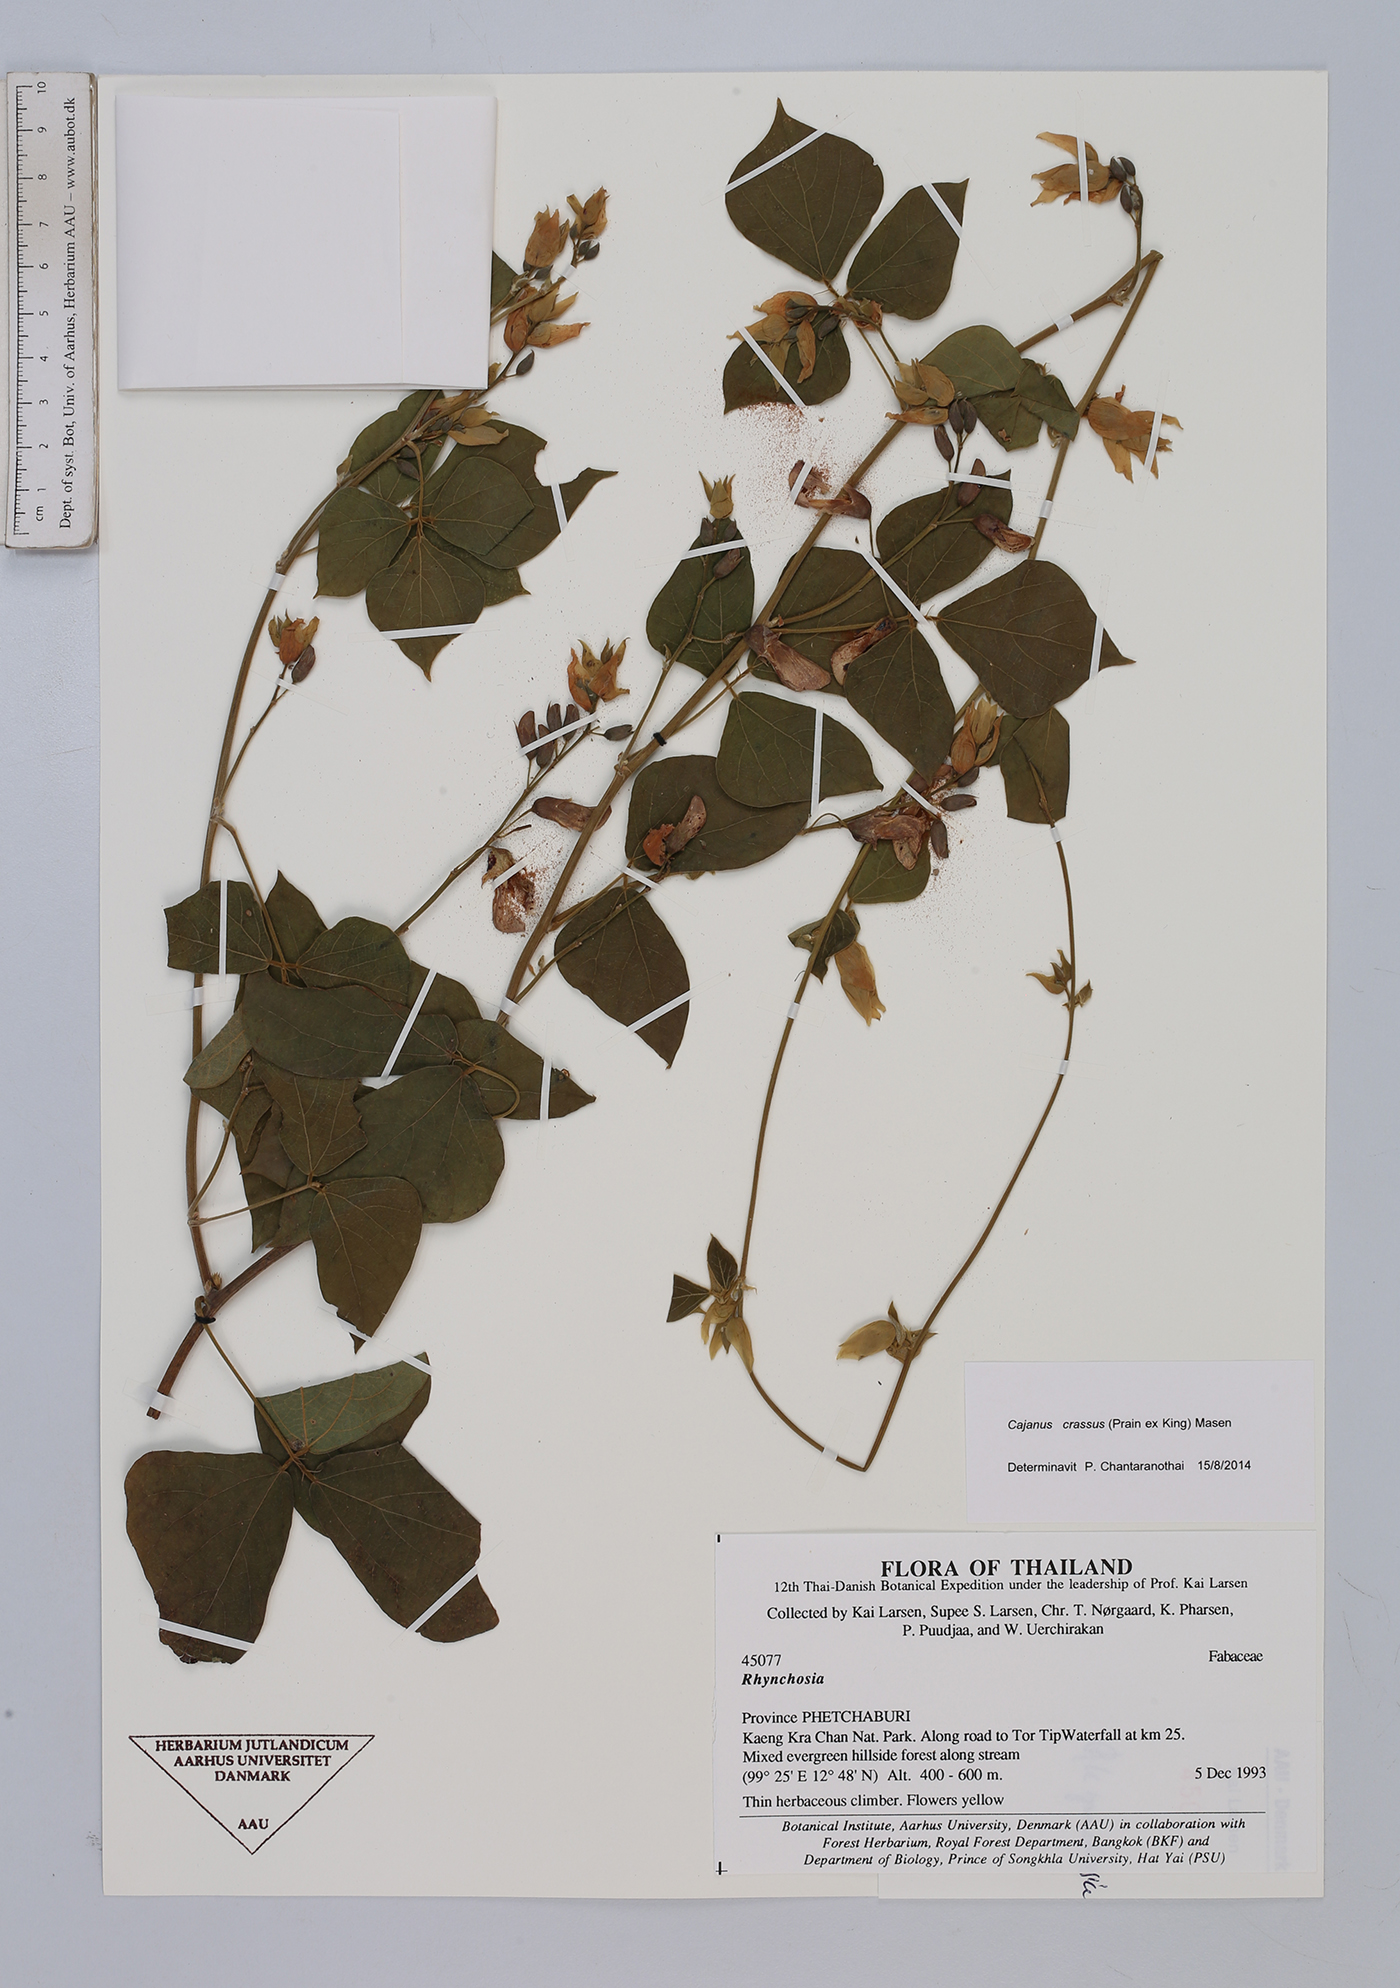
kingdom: Plantae
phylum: Tracheophyta
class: Magnoliopsida
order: Fabales
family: Fabaceae
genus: Cajanus
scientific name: Cajanus crassus
